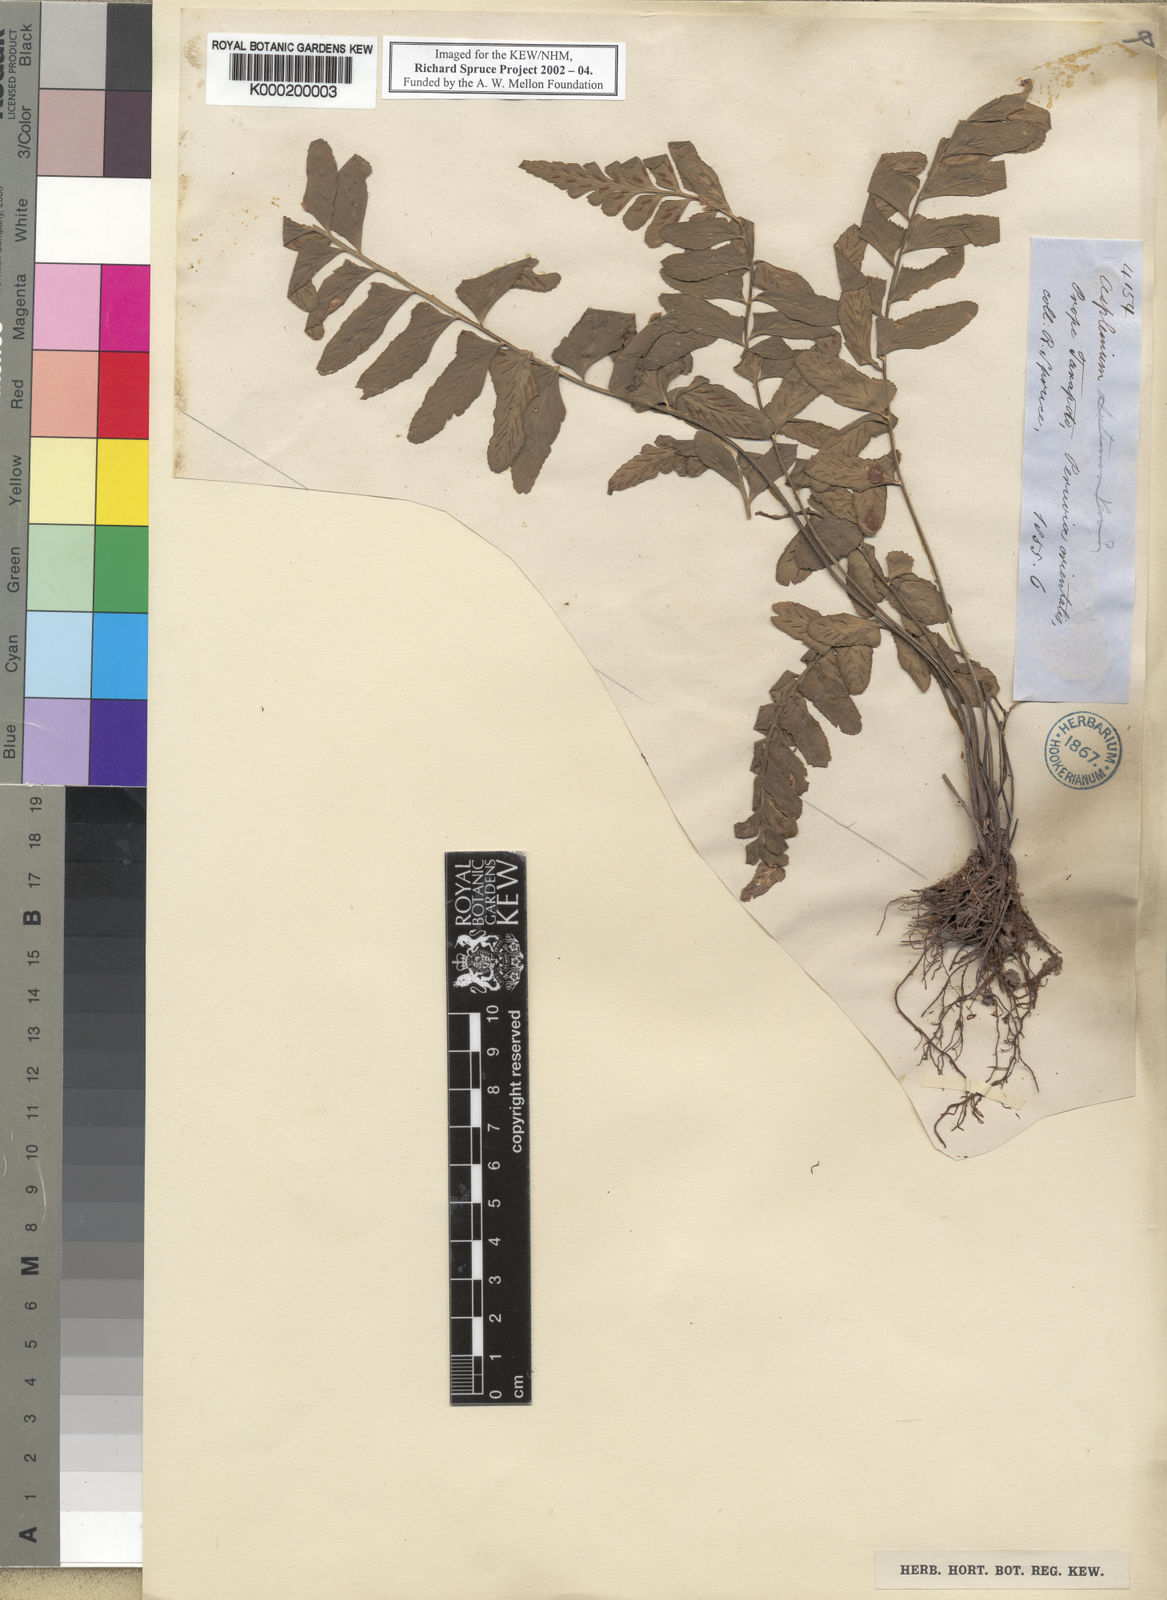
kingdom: Plantae
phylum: Tracheophyta
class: Polypodiopsida
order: Polypodiales
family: Aspleniaceae
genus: Asplenium
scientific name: Asplenium
